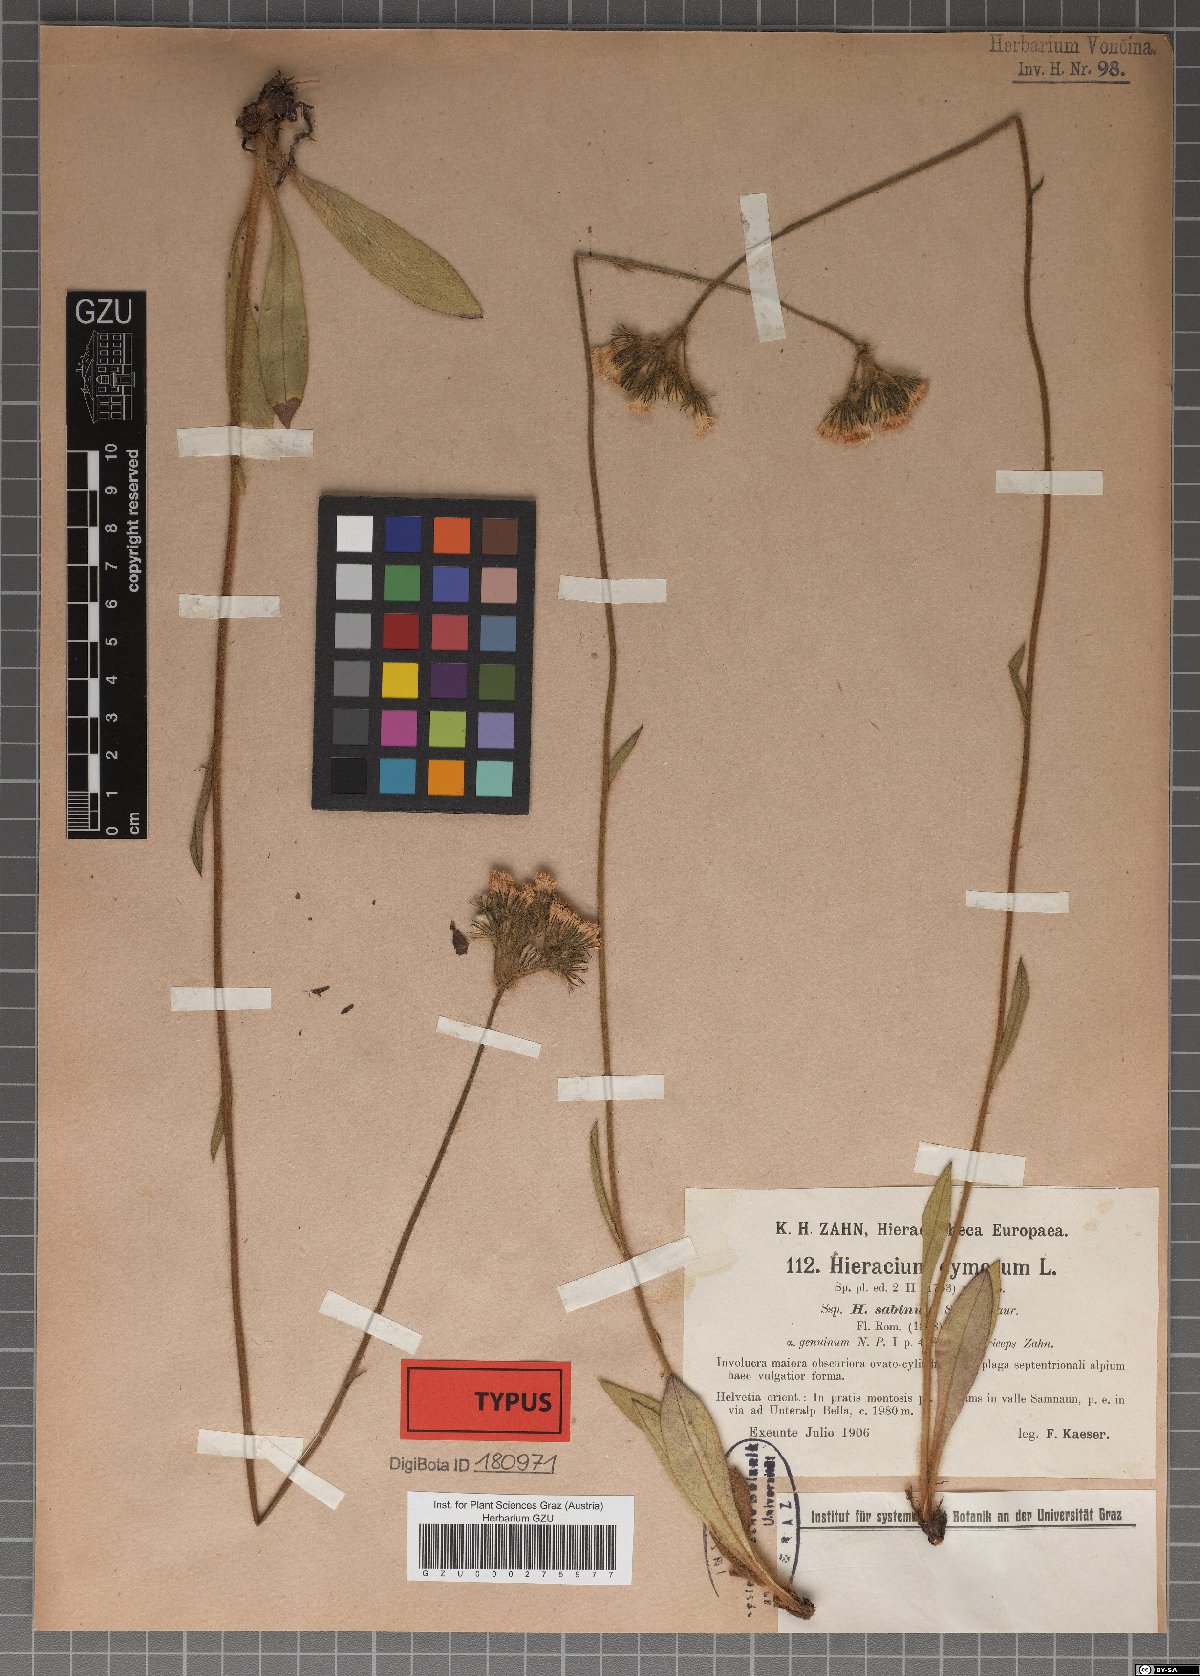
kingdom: Plantae
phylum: Tracheophyta
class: Magnoliopsida
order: Asterales
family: Asteraceae
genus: Hieracium
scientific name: Hieracium cymosum
